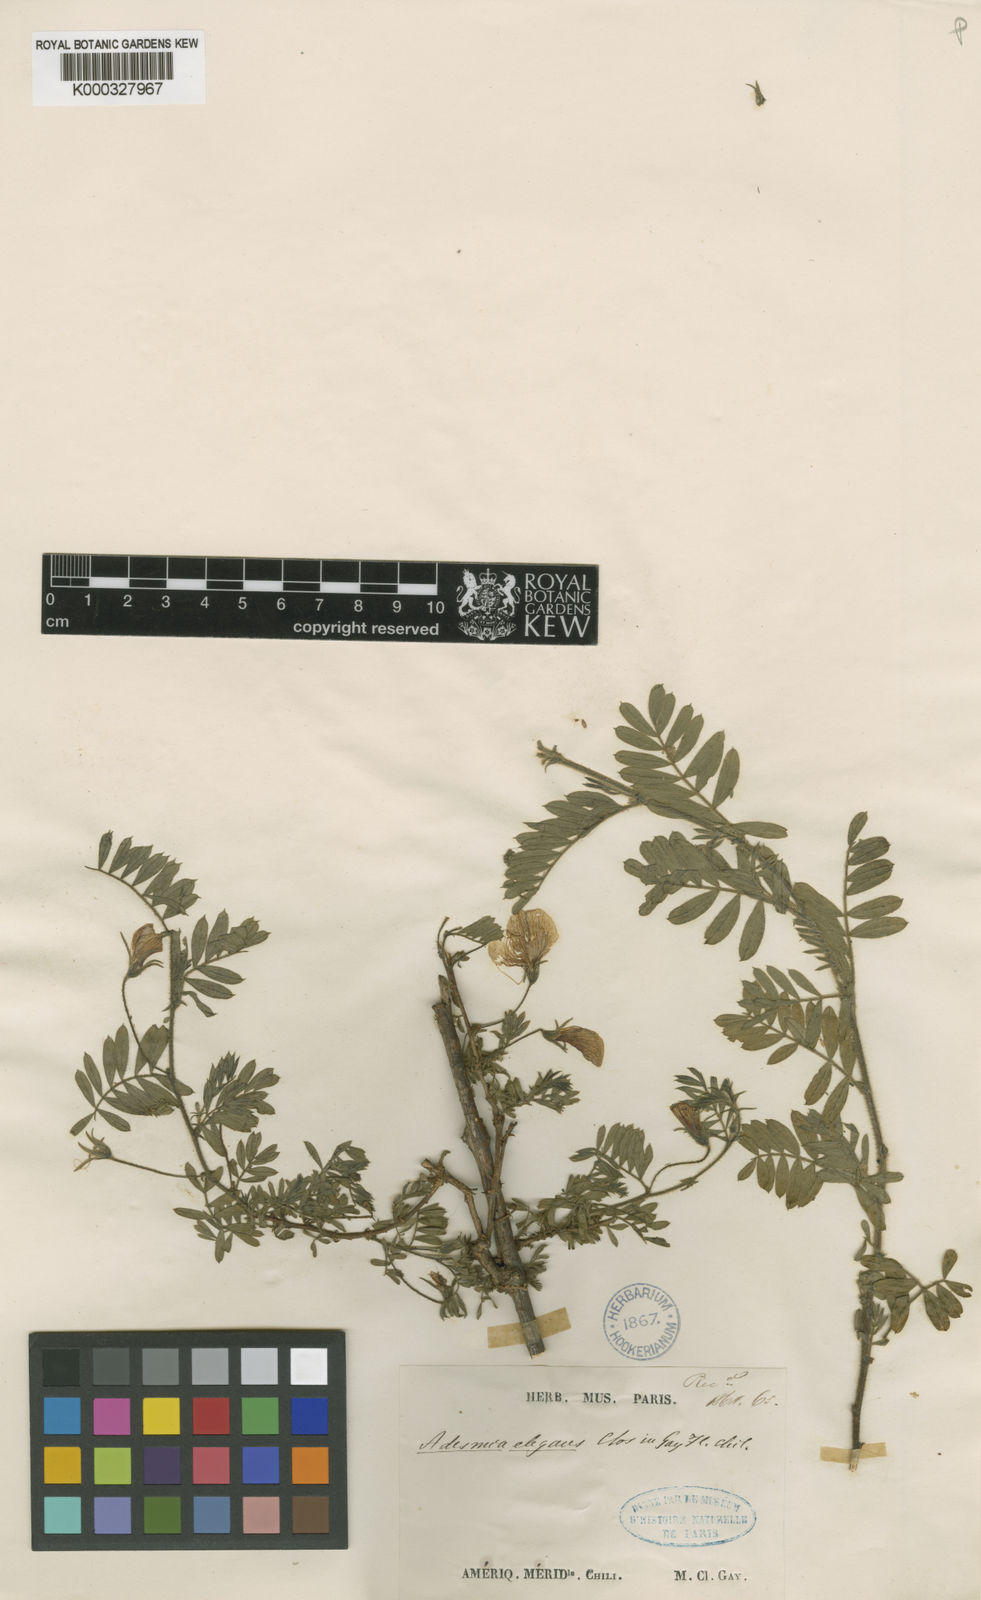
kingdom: Plantae
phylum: Tracheophyta
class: Magnoliopsida
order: Fabales
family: Fabaceae
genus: Adesmia
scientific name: Adesmia elegans
